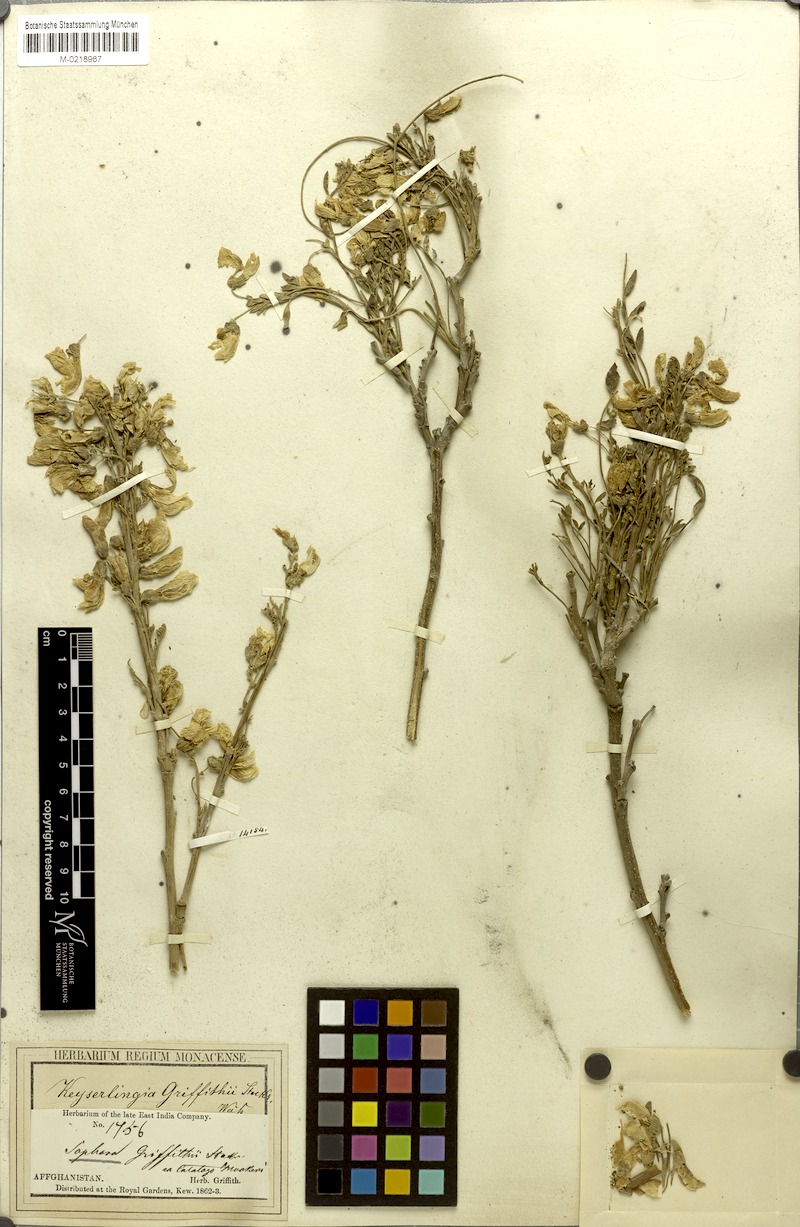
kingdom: Plantae
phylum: Tracheophyta
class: Magnoliopsida
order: Fabales
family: Fabaceae
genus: Sophora
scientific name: Sophora mollis
